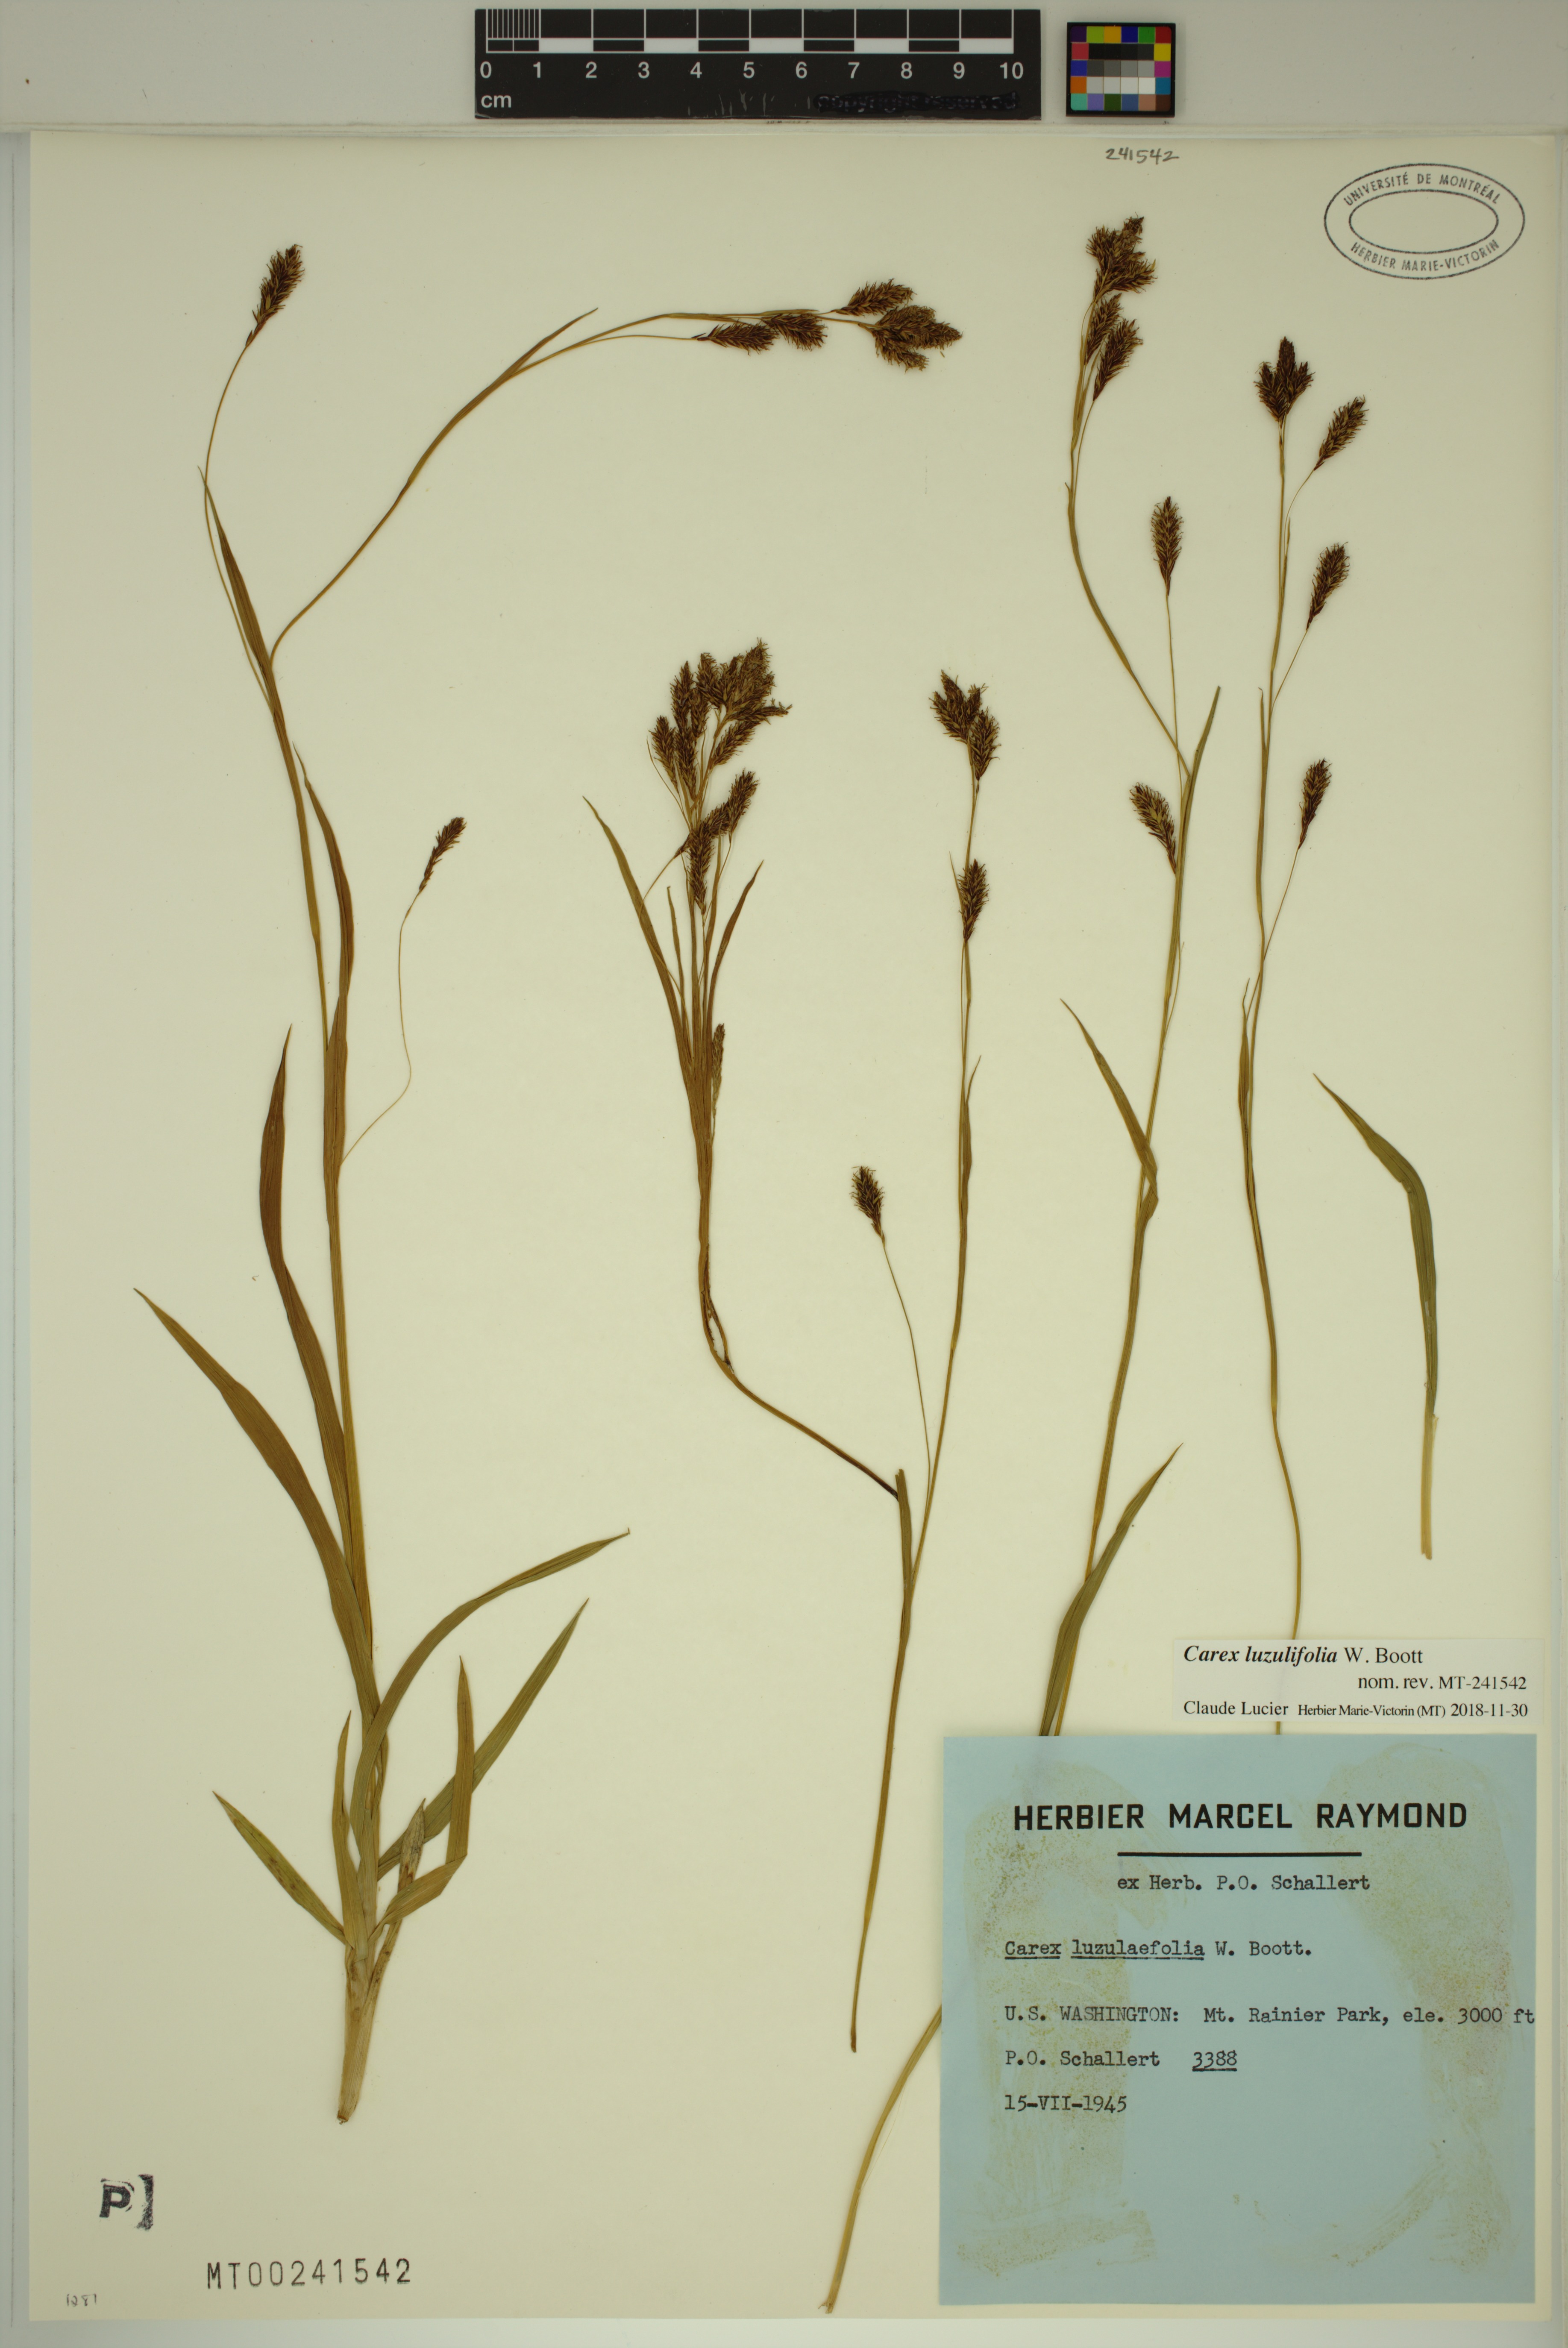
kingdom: Plantae
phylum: Tracheophyta
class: Liliopsida
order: Poales
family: Cyperaceae
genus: Carex
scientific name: Carex luzulifolia
